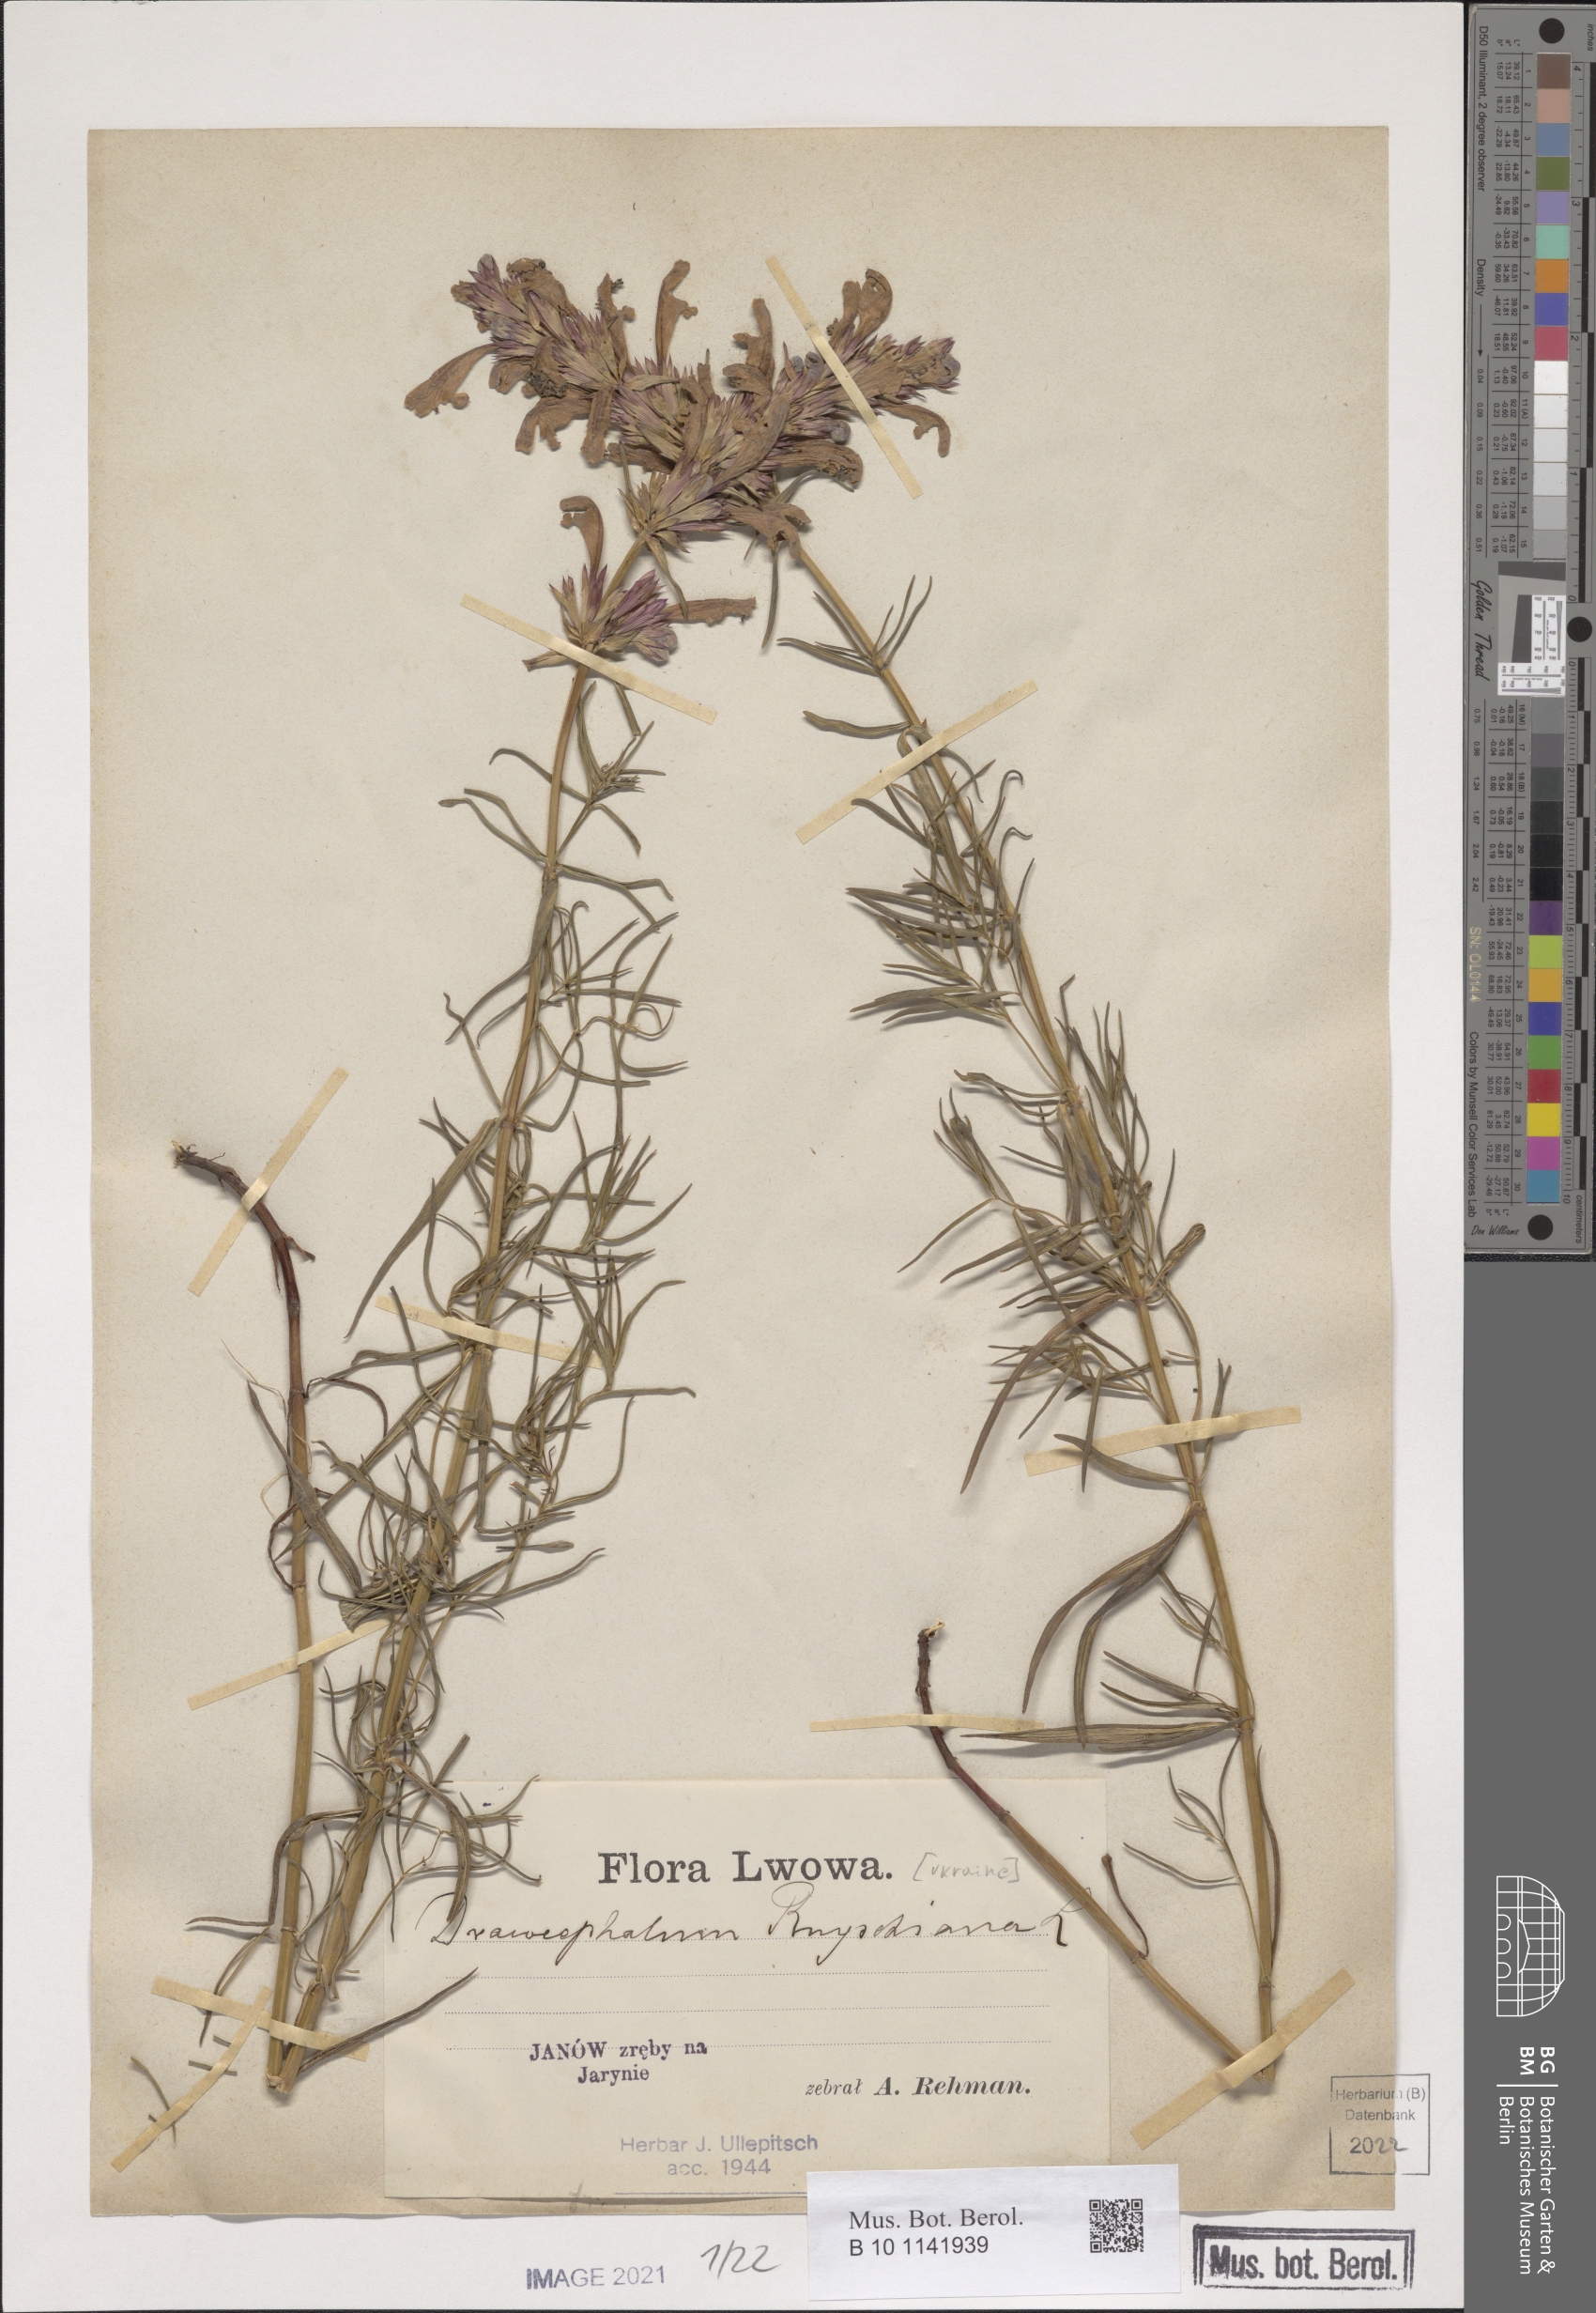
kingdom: Plantae
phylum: Tracheophyta
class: Magnoliopsida
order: Lamiales
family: Lamiaceae
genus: Dracocephalum
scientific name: Dracocephalum ruyschiana
